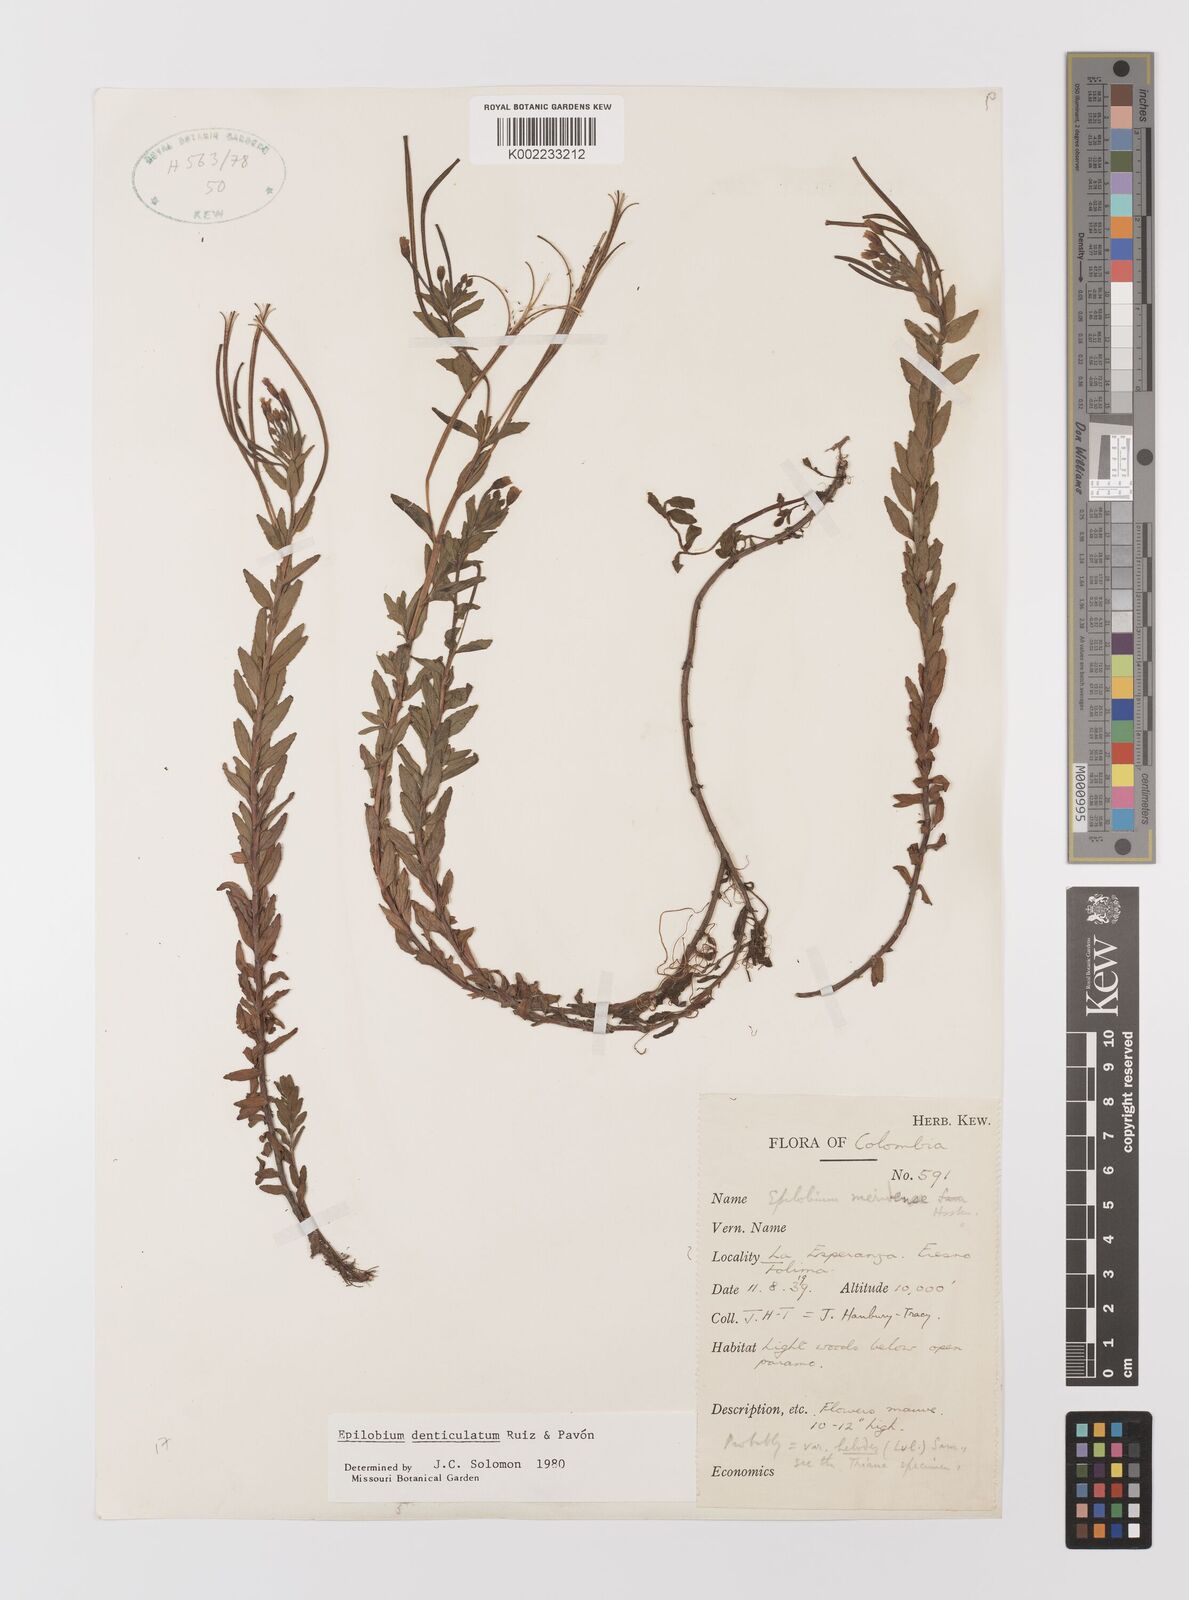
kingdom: Plantae
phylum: Tracheophyta
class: Magnoliopsida
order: Myrtales
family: Onagraceae
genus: Epilobium
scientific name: Epilobium denticulatum
